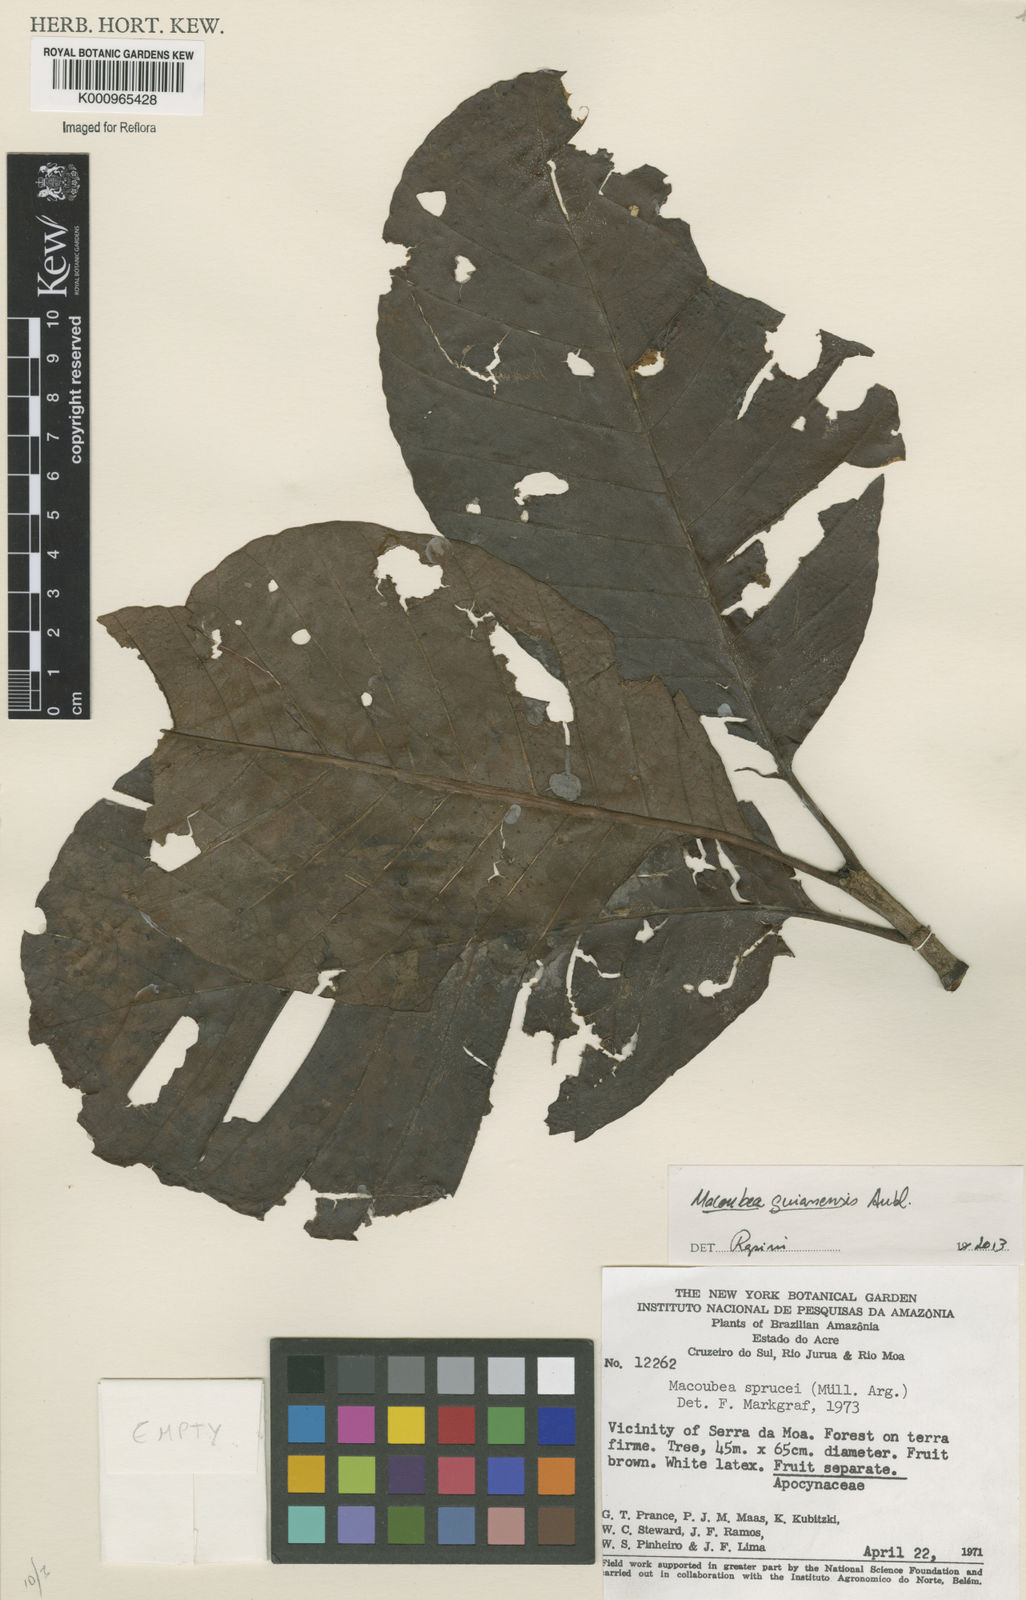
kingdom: Plantae
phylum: Tracheophyta
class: Magnoliopsida
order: Gentianales
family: Apocynaceae
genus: Macoubea
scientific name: Macoubea guianensis
